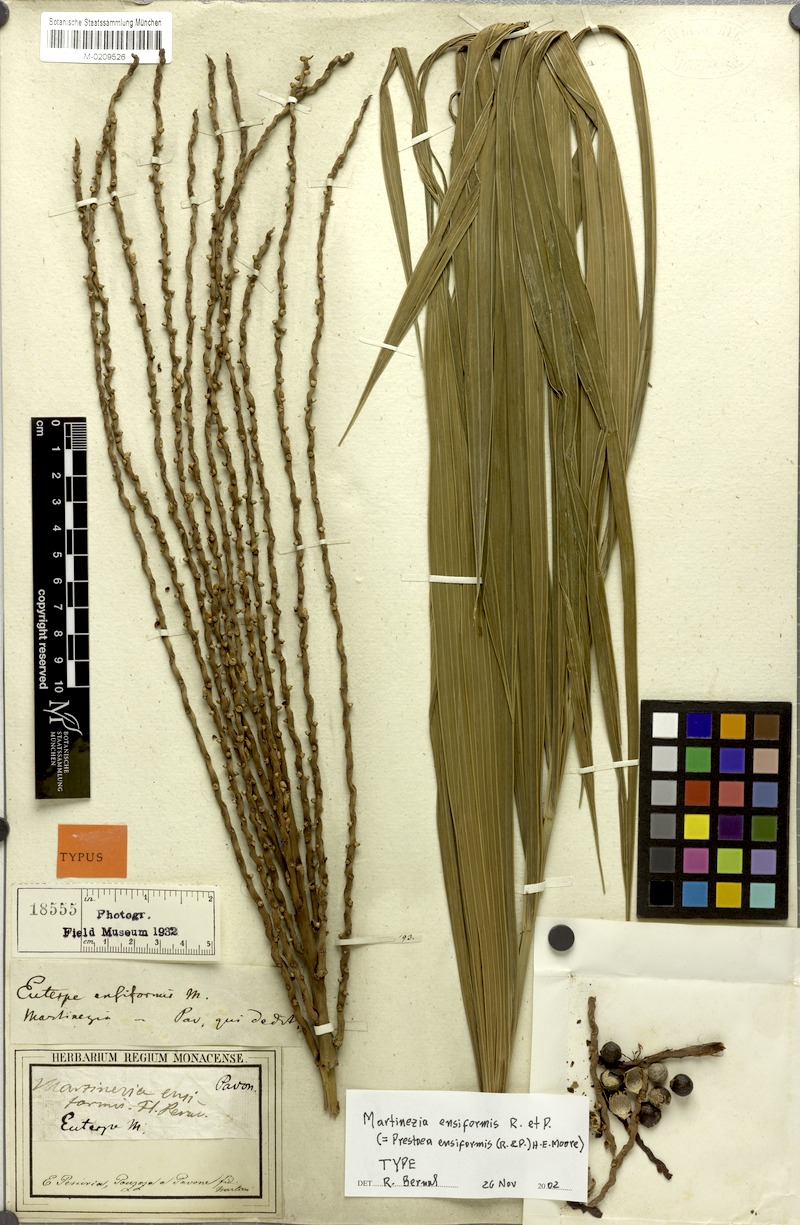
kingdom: Plantae
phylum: Tracheophyta
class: Liliopsida
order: Arecales
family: Arecaceae
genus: Prestoea
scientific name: Prestoea ensiformis
